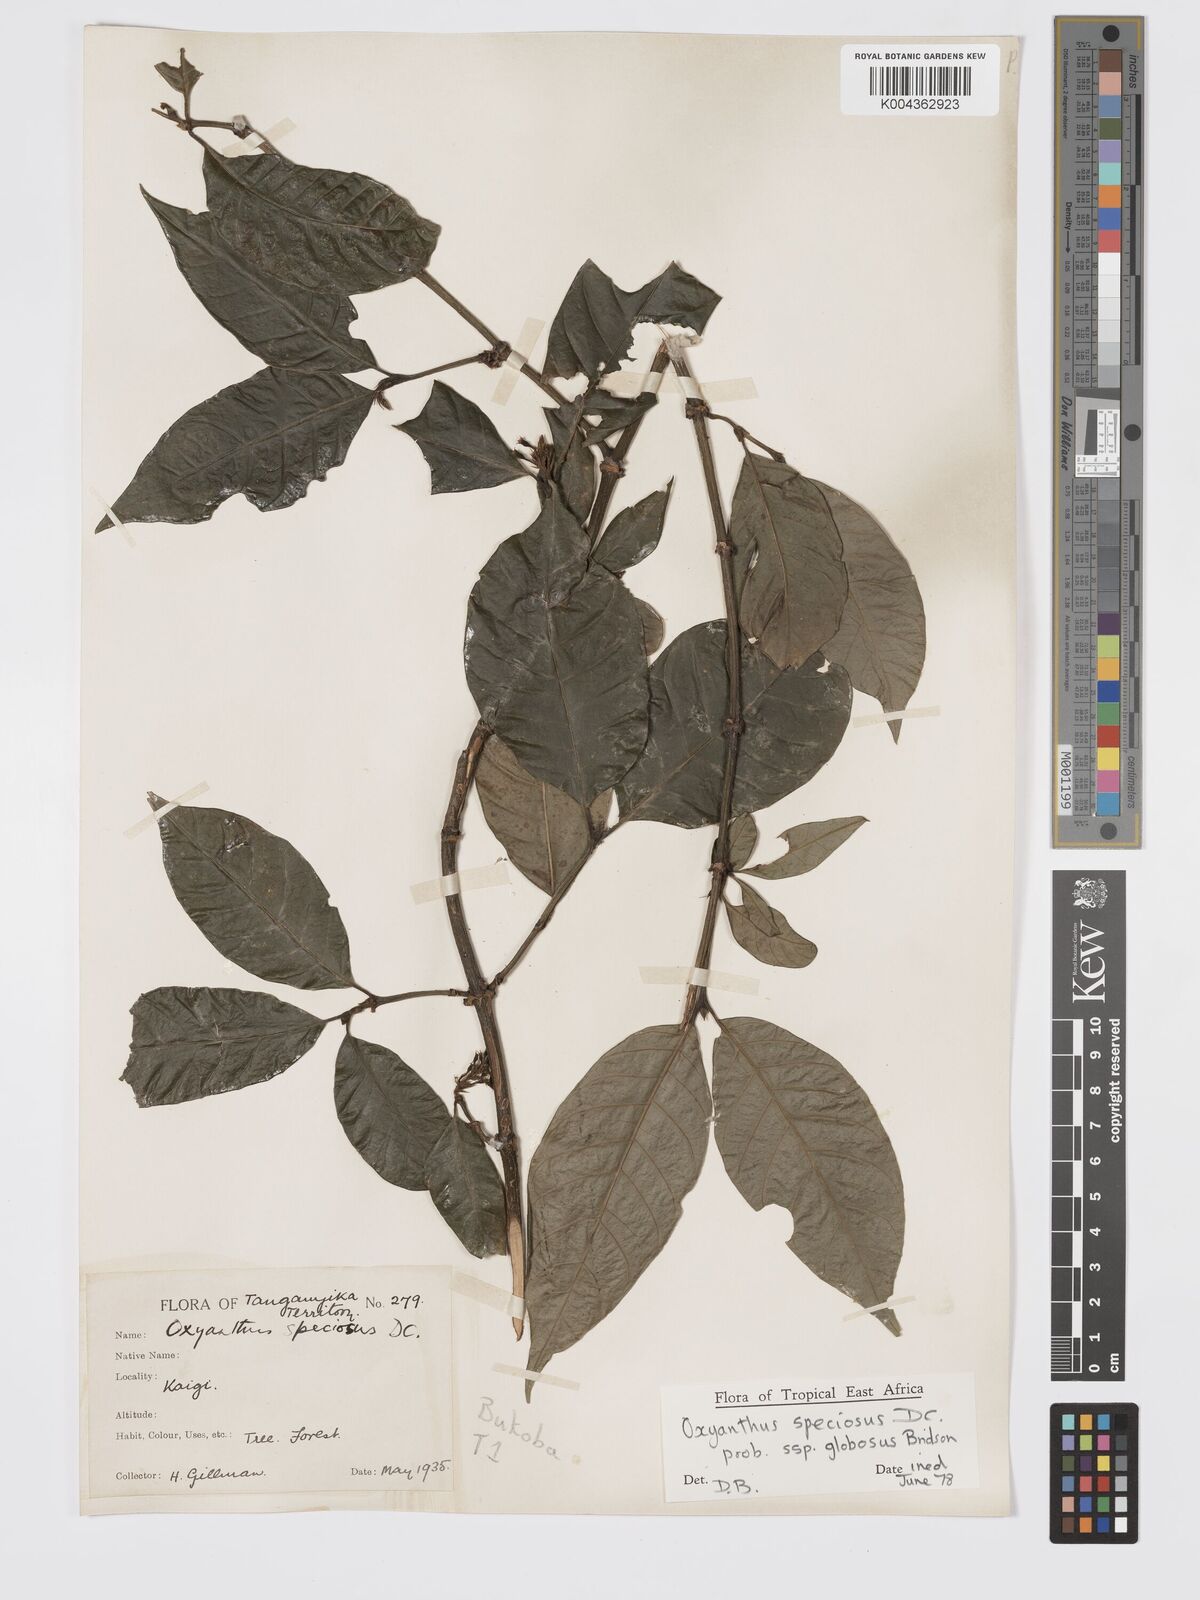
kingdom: Plantae
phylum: Tracheophyta
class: Magnoliopsida
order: Gentianales
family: Rubiaceae
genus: Oxyanthus
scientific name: Oxyanthus speciosus
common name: Whipstick loquat
